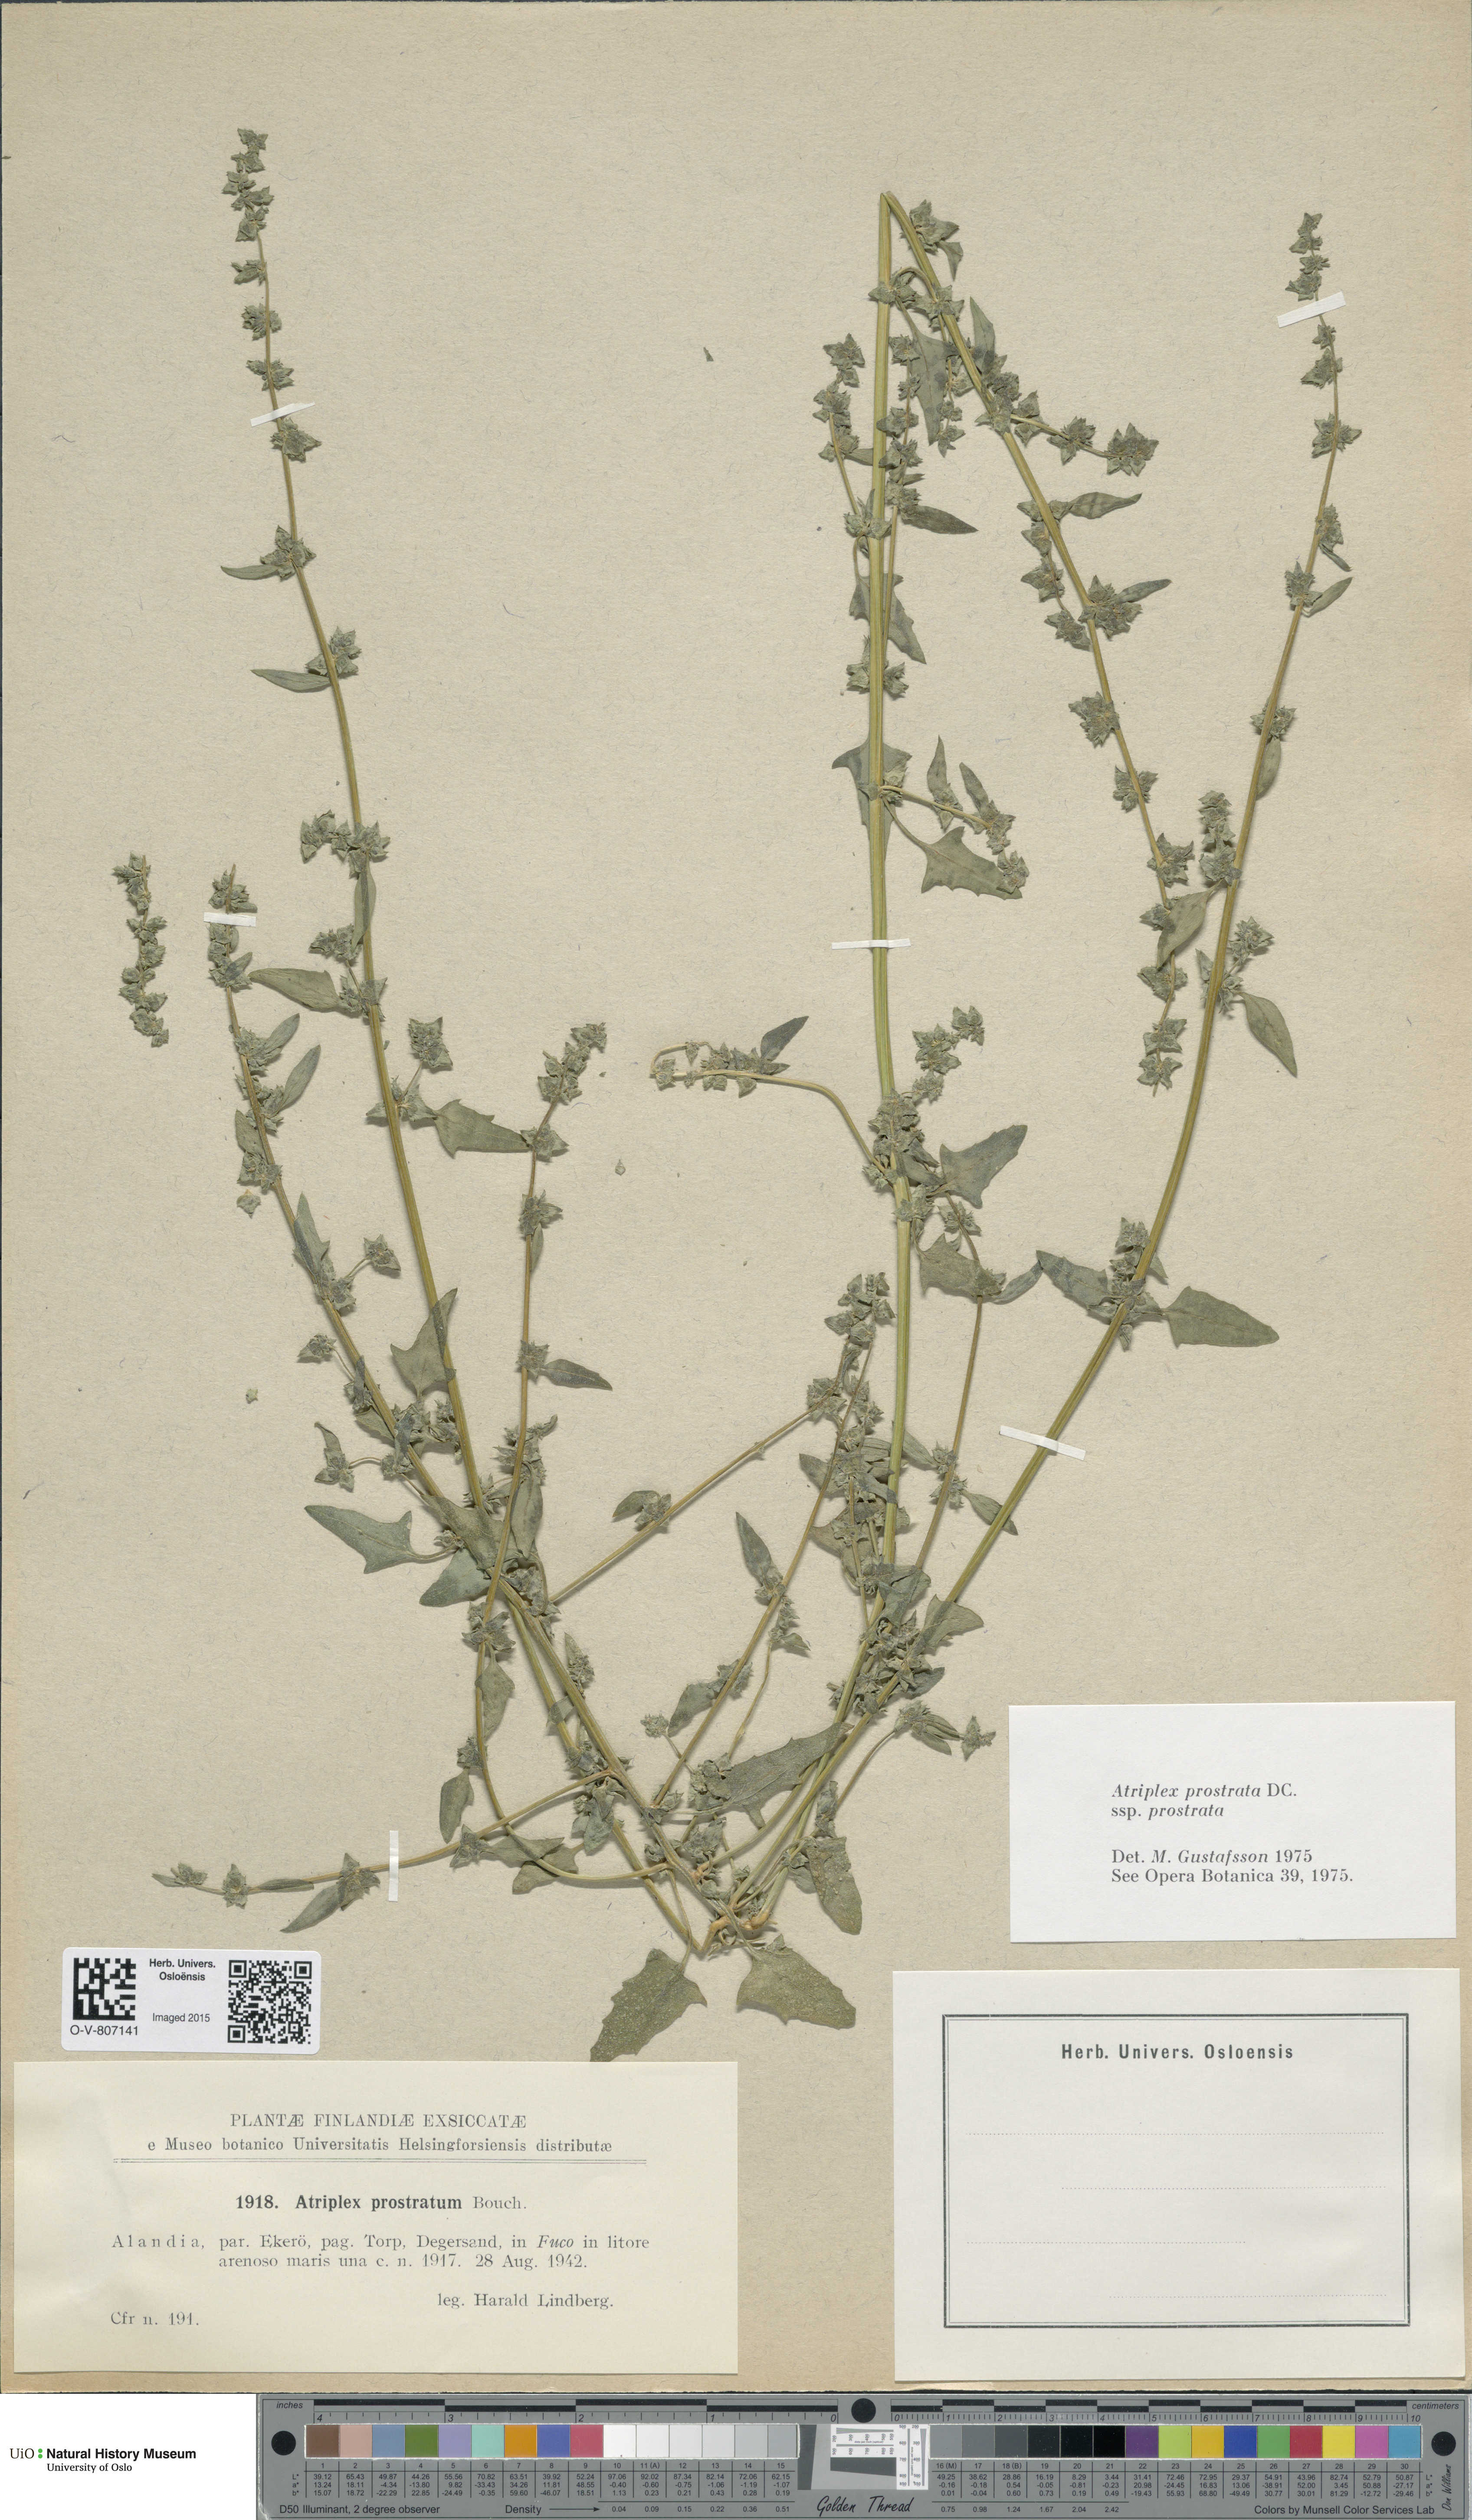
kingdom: Plantae
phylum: Tracheophyta
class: Magnoliopsida
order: Caryophyllales
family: Amaranthaceae
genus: Atriplex
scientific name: Atriplex prostrata
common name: Spear-leaved orache
